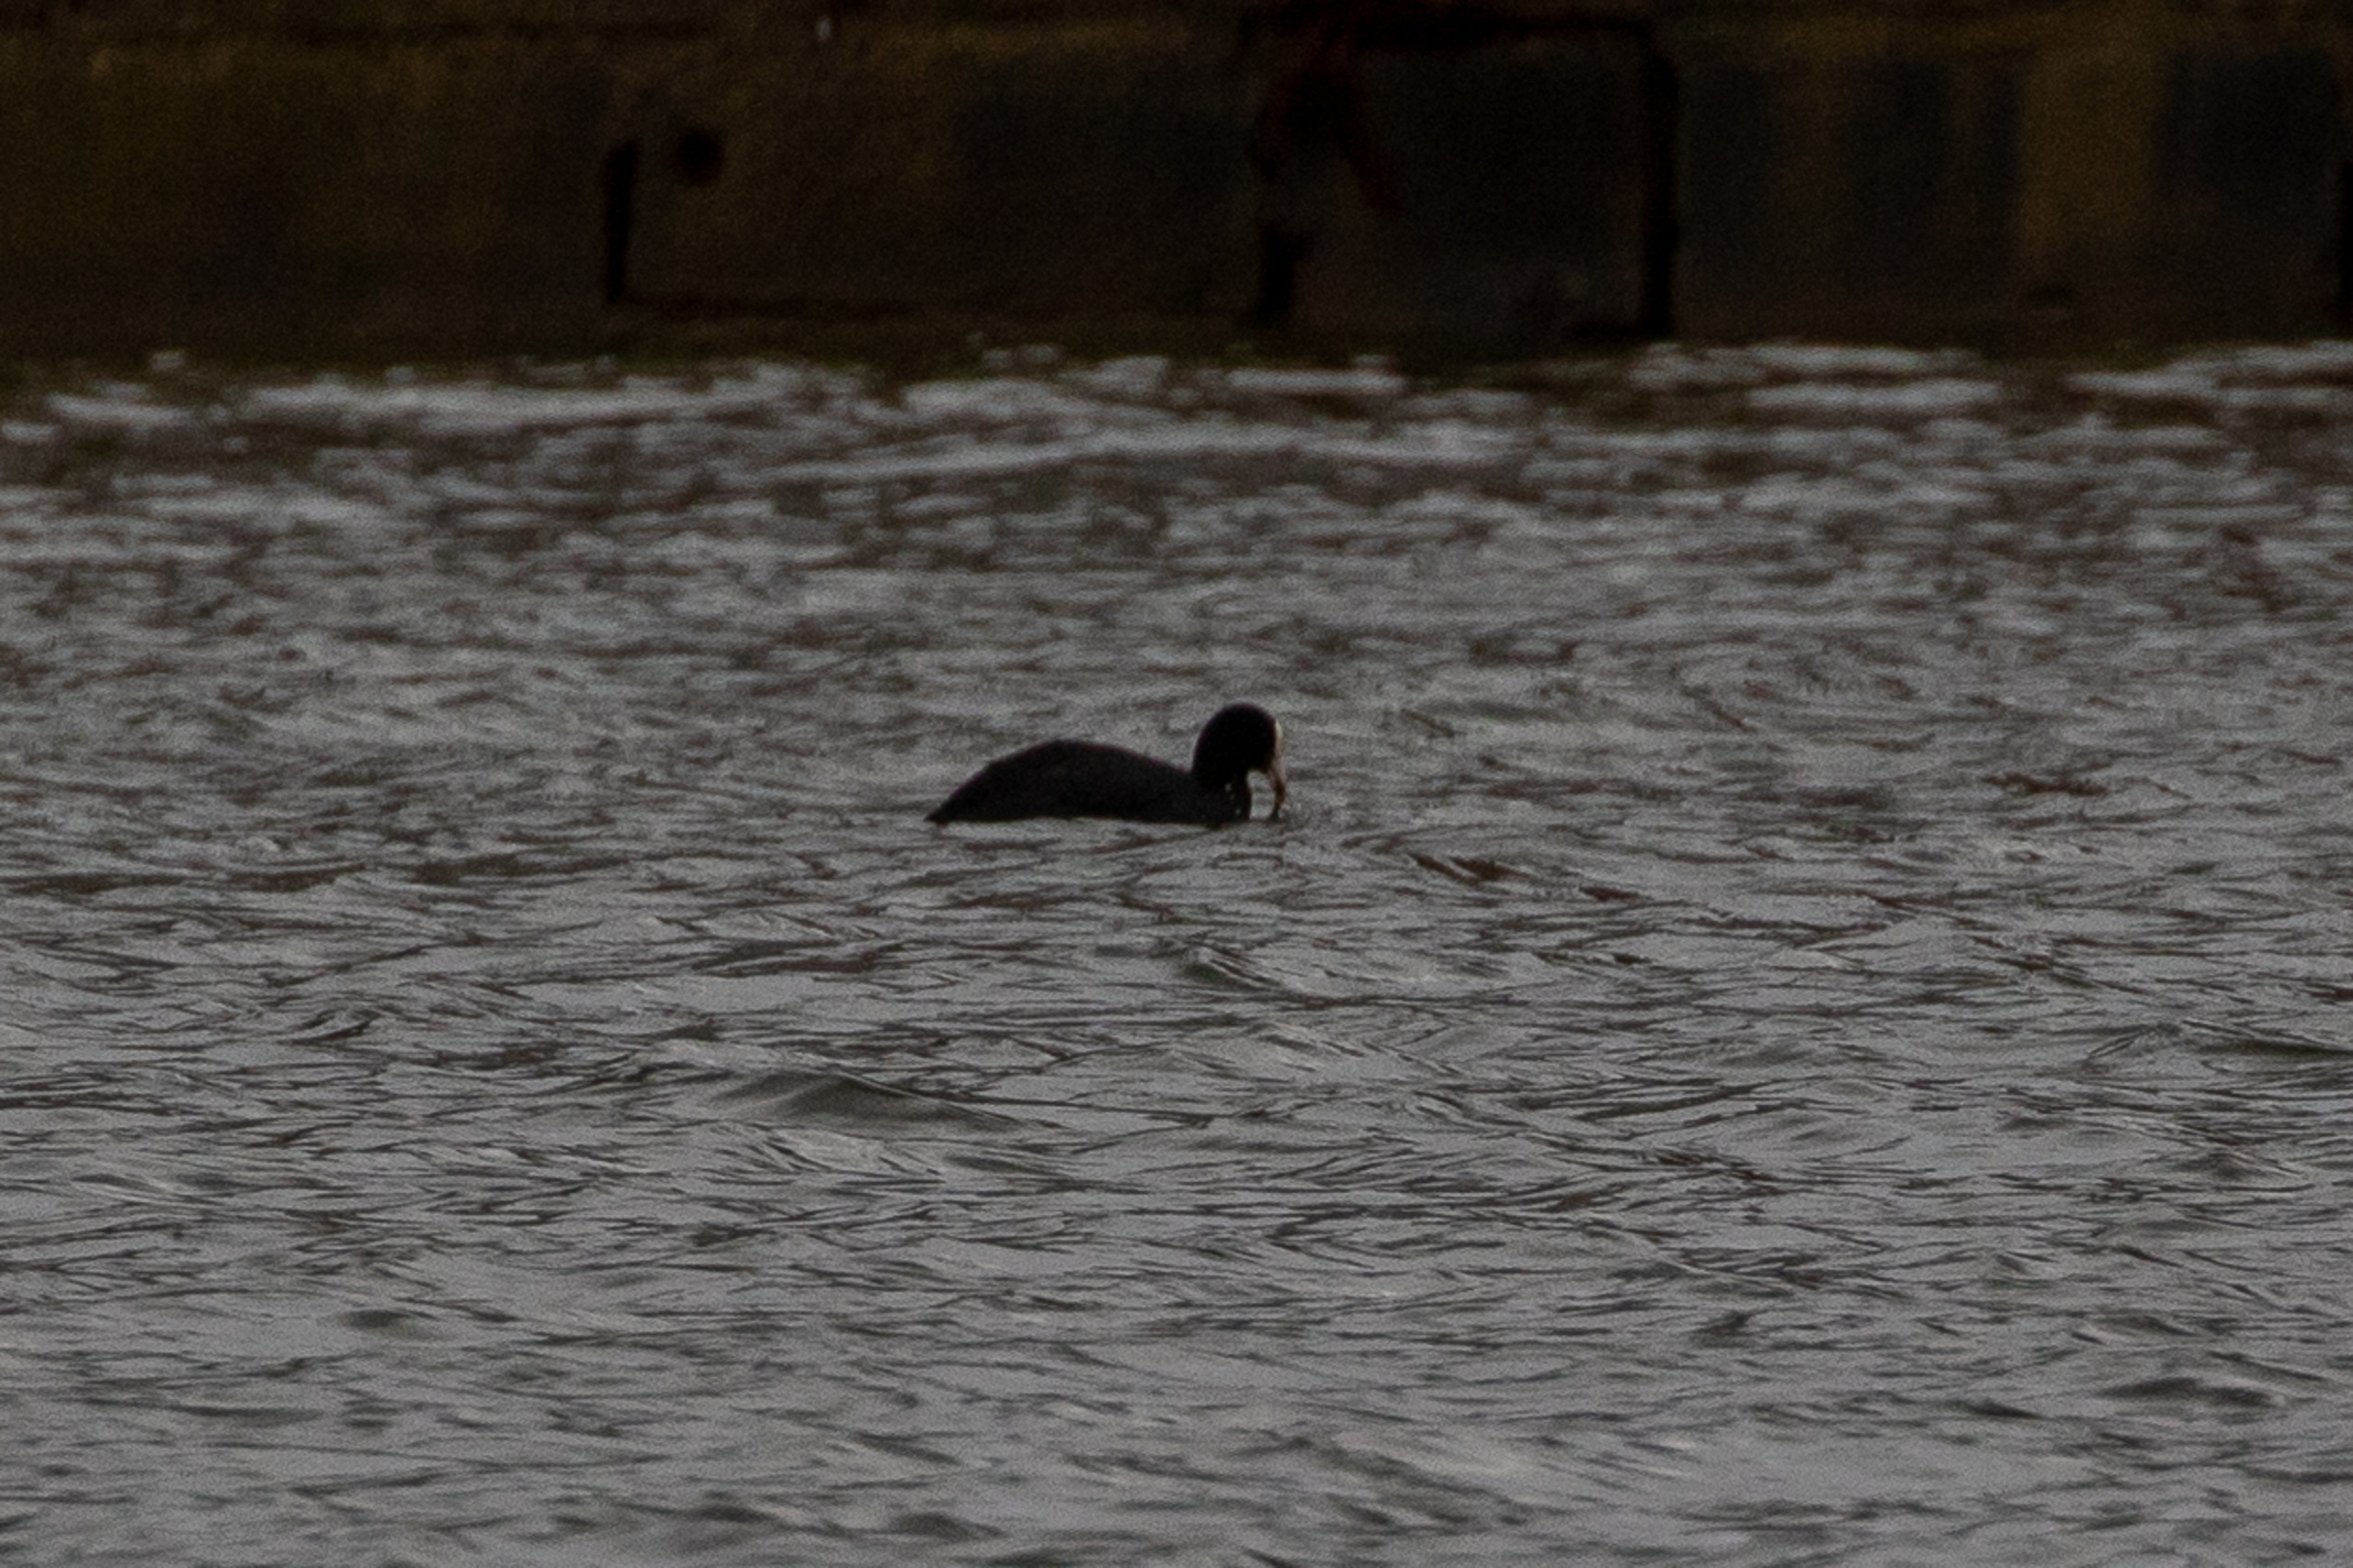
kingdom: Animalia
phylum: Chordata
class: Aves
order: Gruiformes
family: Rallidae
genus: Fulica
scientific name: Fulica atra
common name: Blishøne
